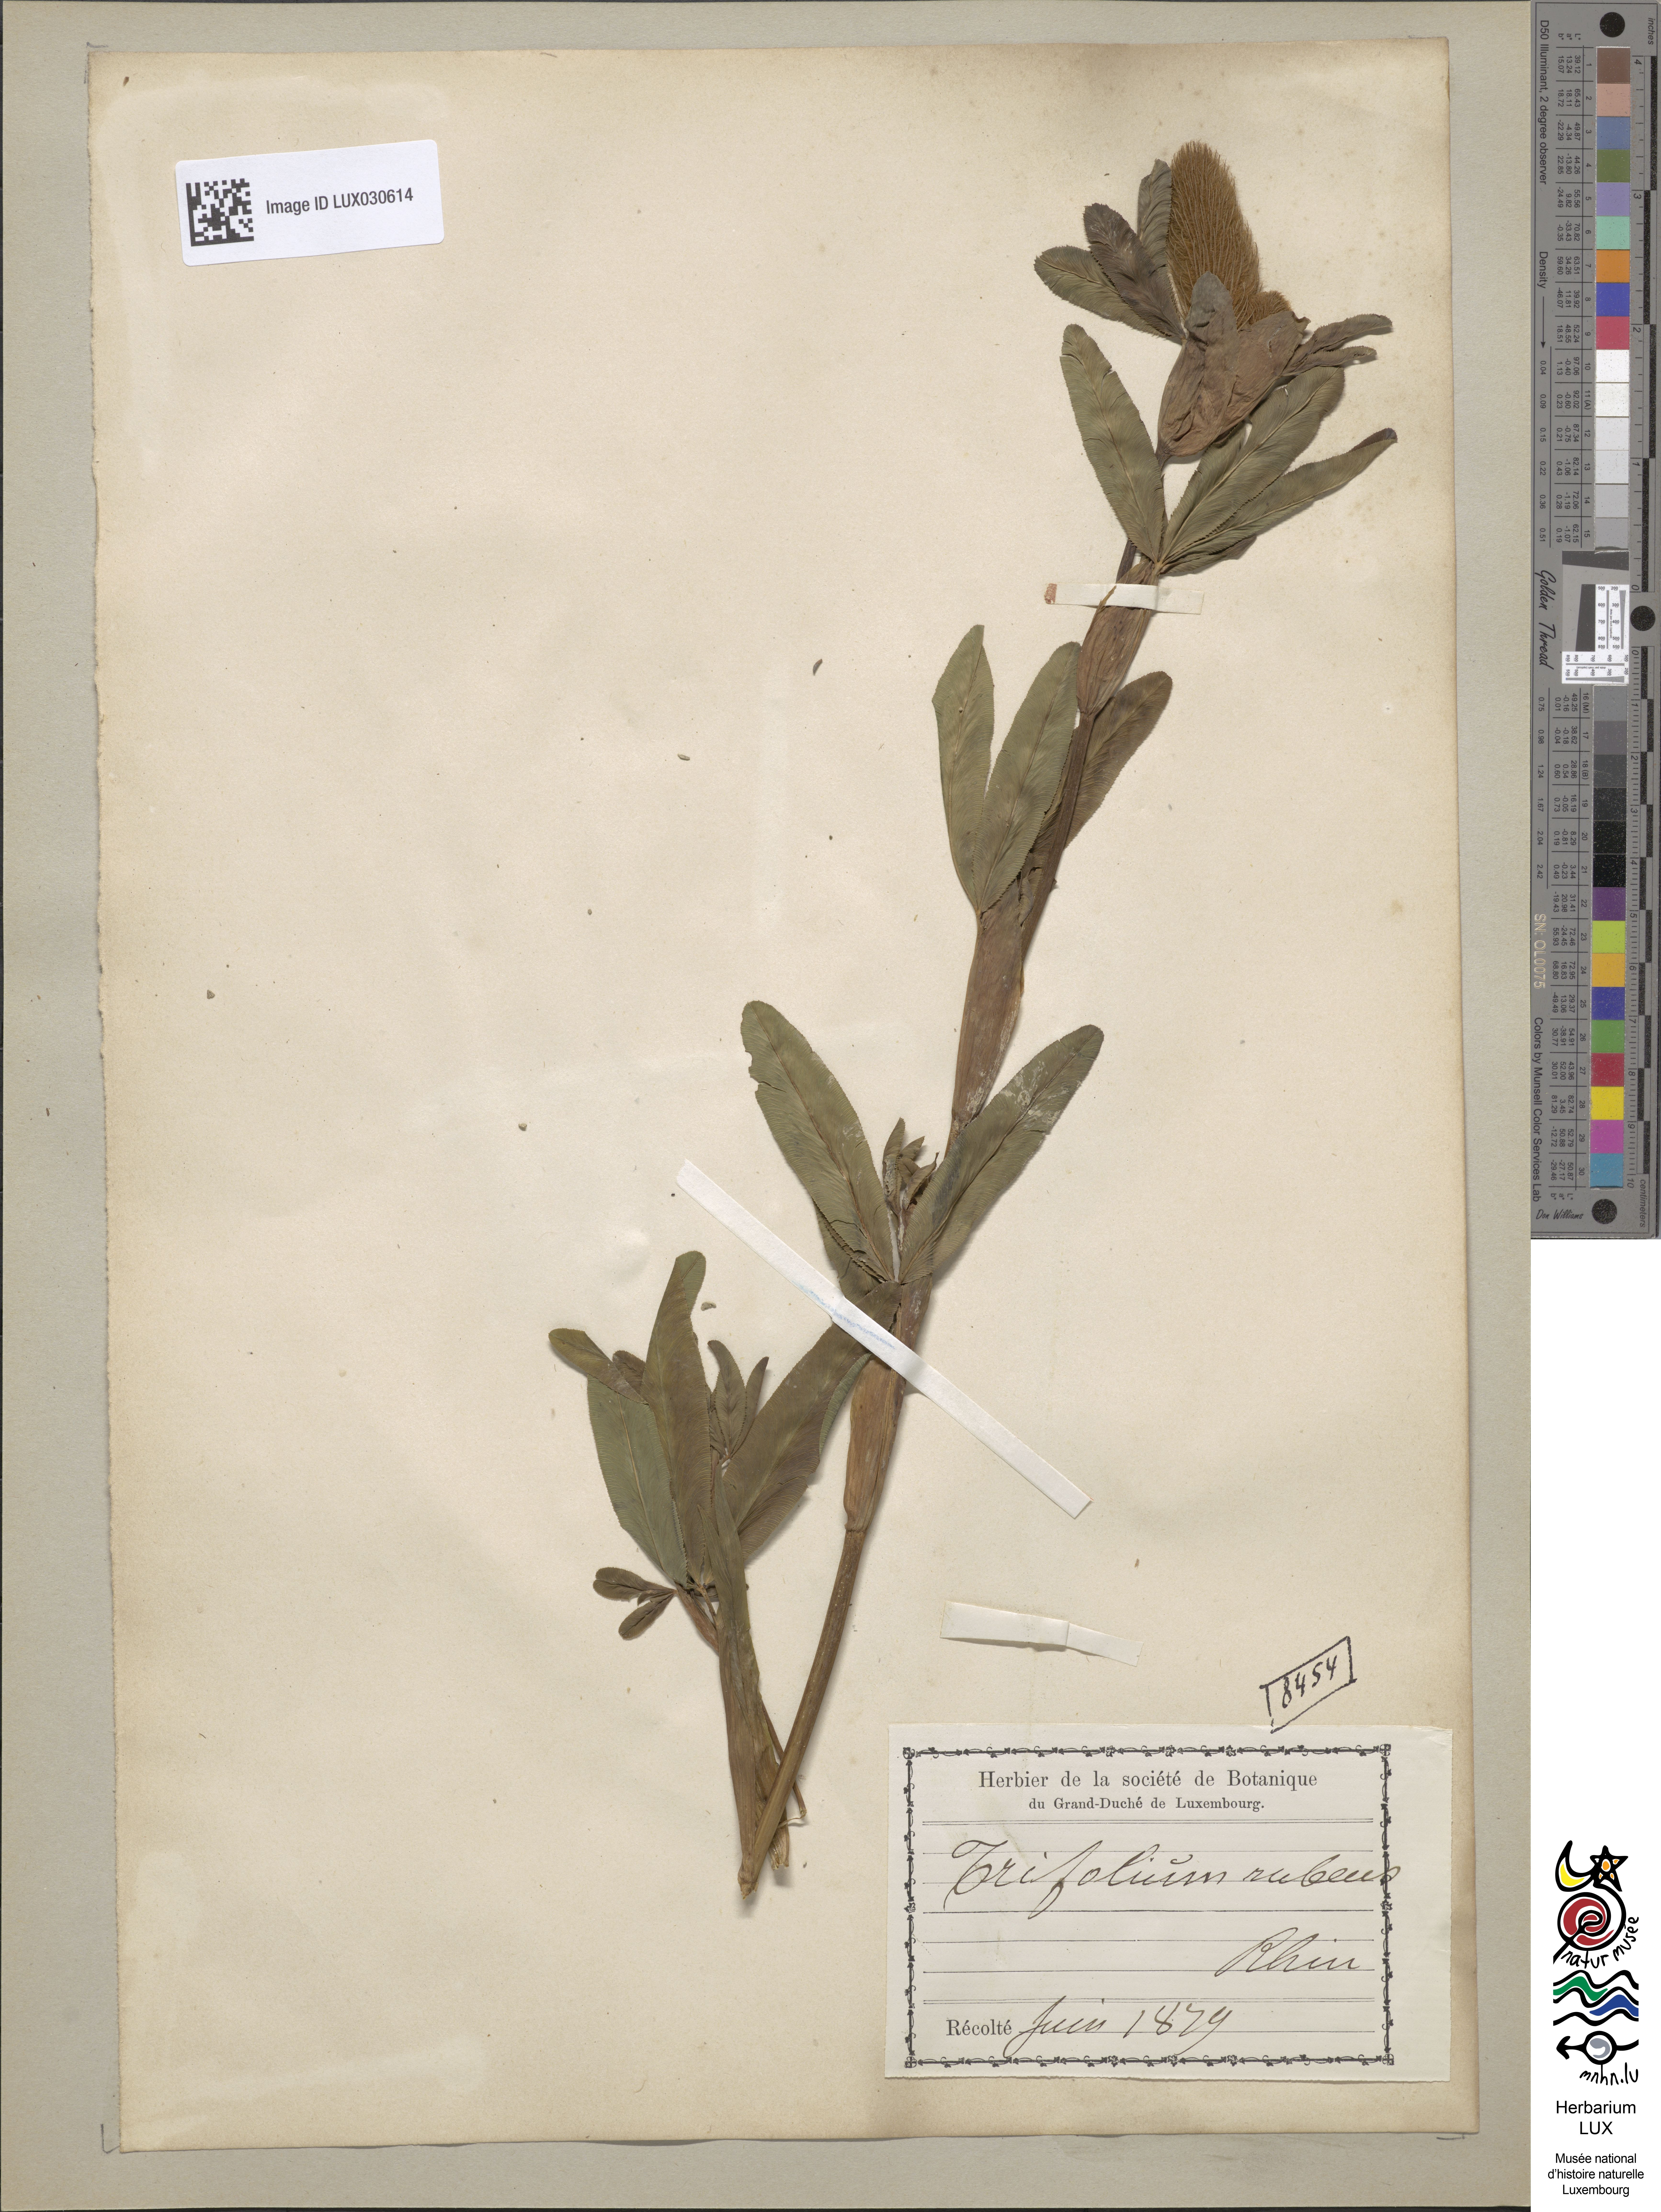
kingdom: Plantae
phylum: Tracheophyta
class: Magnoliopsida
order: Fabales
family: Fabaceae
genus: Trifolium
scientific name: Trifolium rubens
